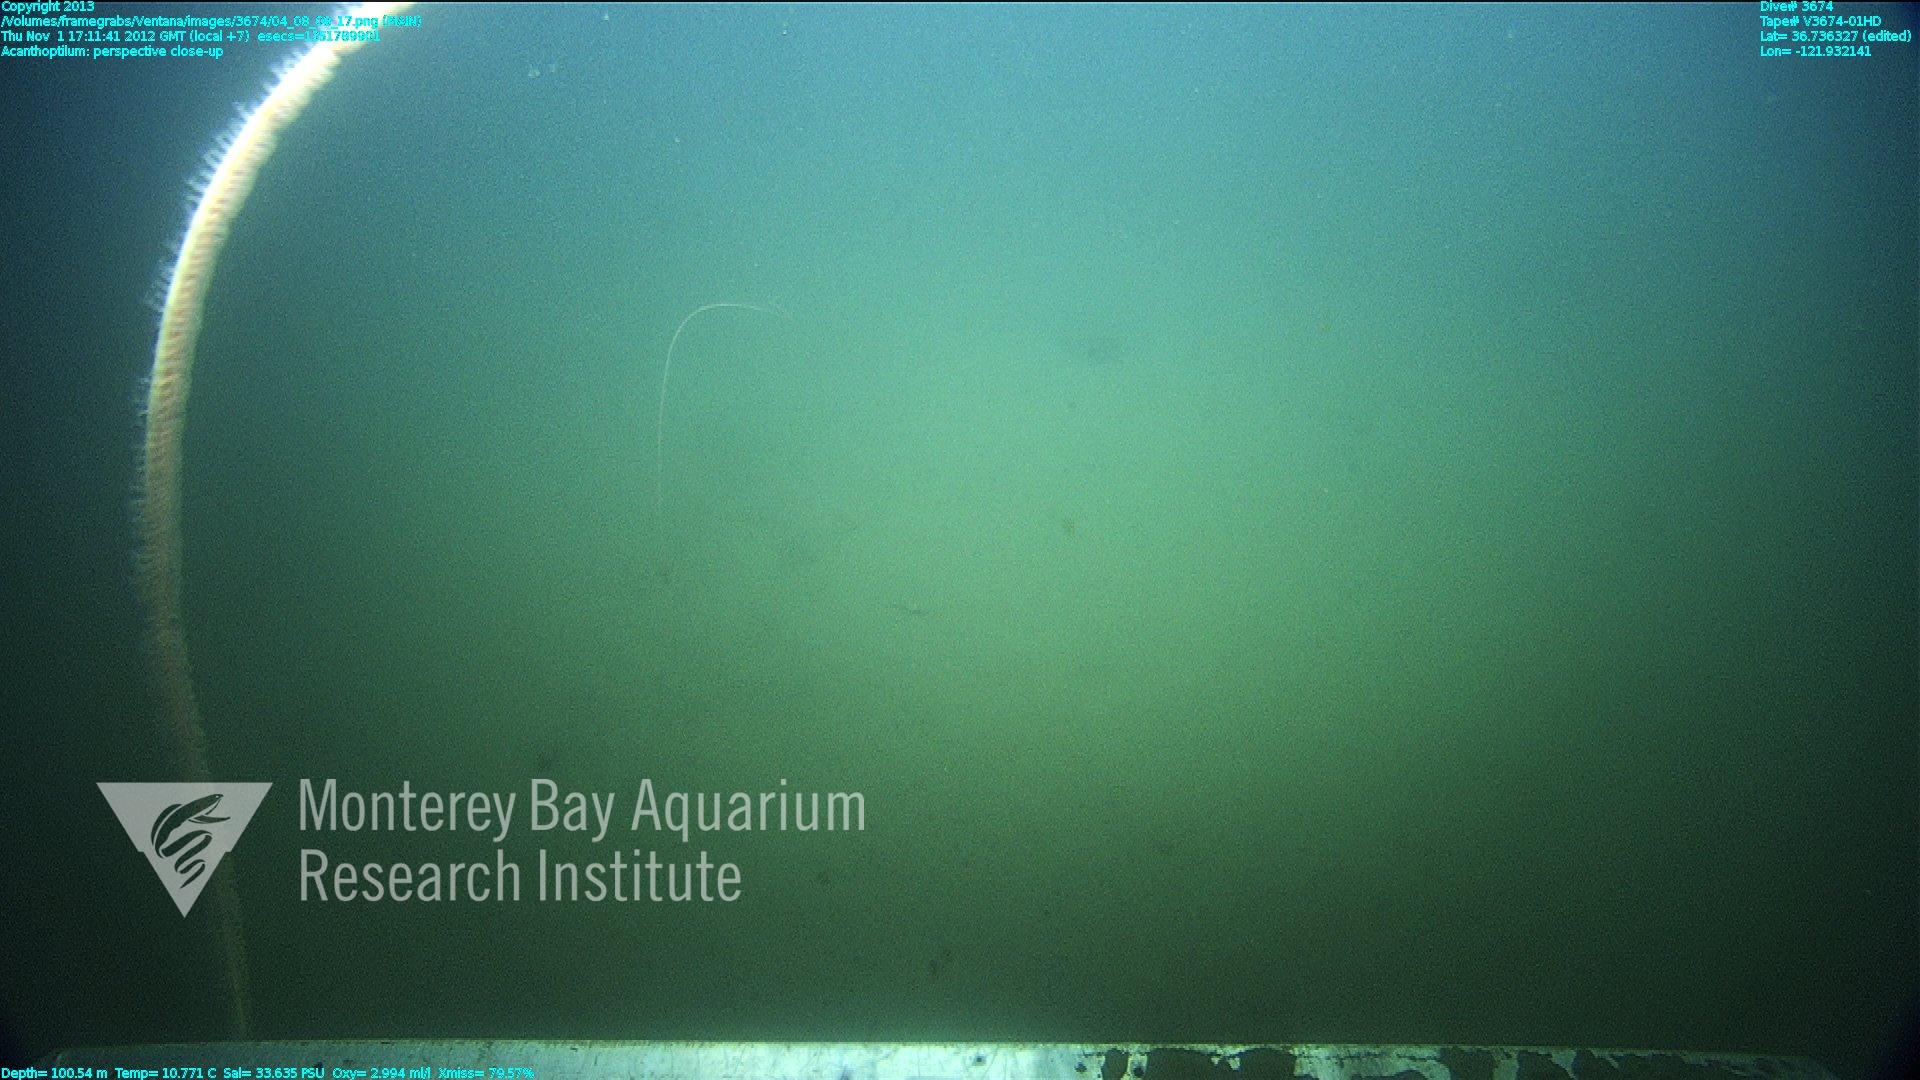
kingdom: Animalia
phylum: Cnidaria
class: Anthozoa
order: Scleralcyonacea
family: Virgulariidae
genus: Acanthoptilum
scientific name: Acanthoptilum
